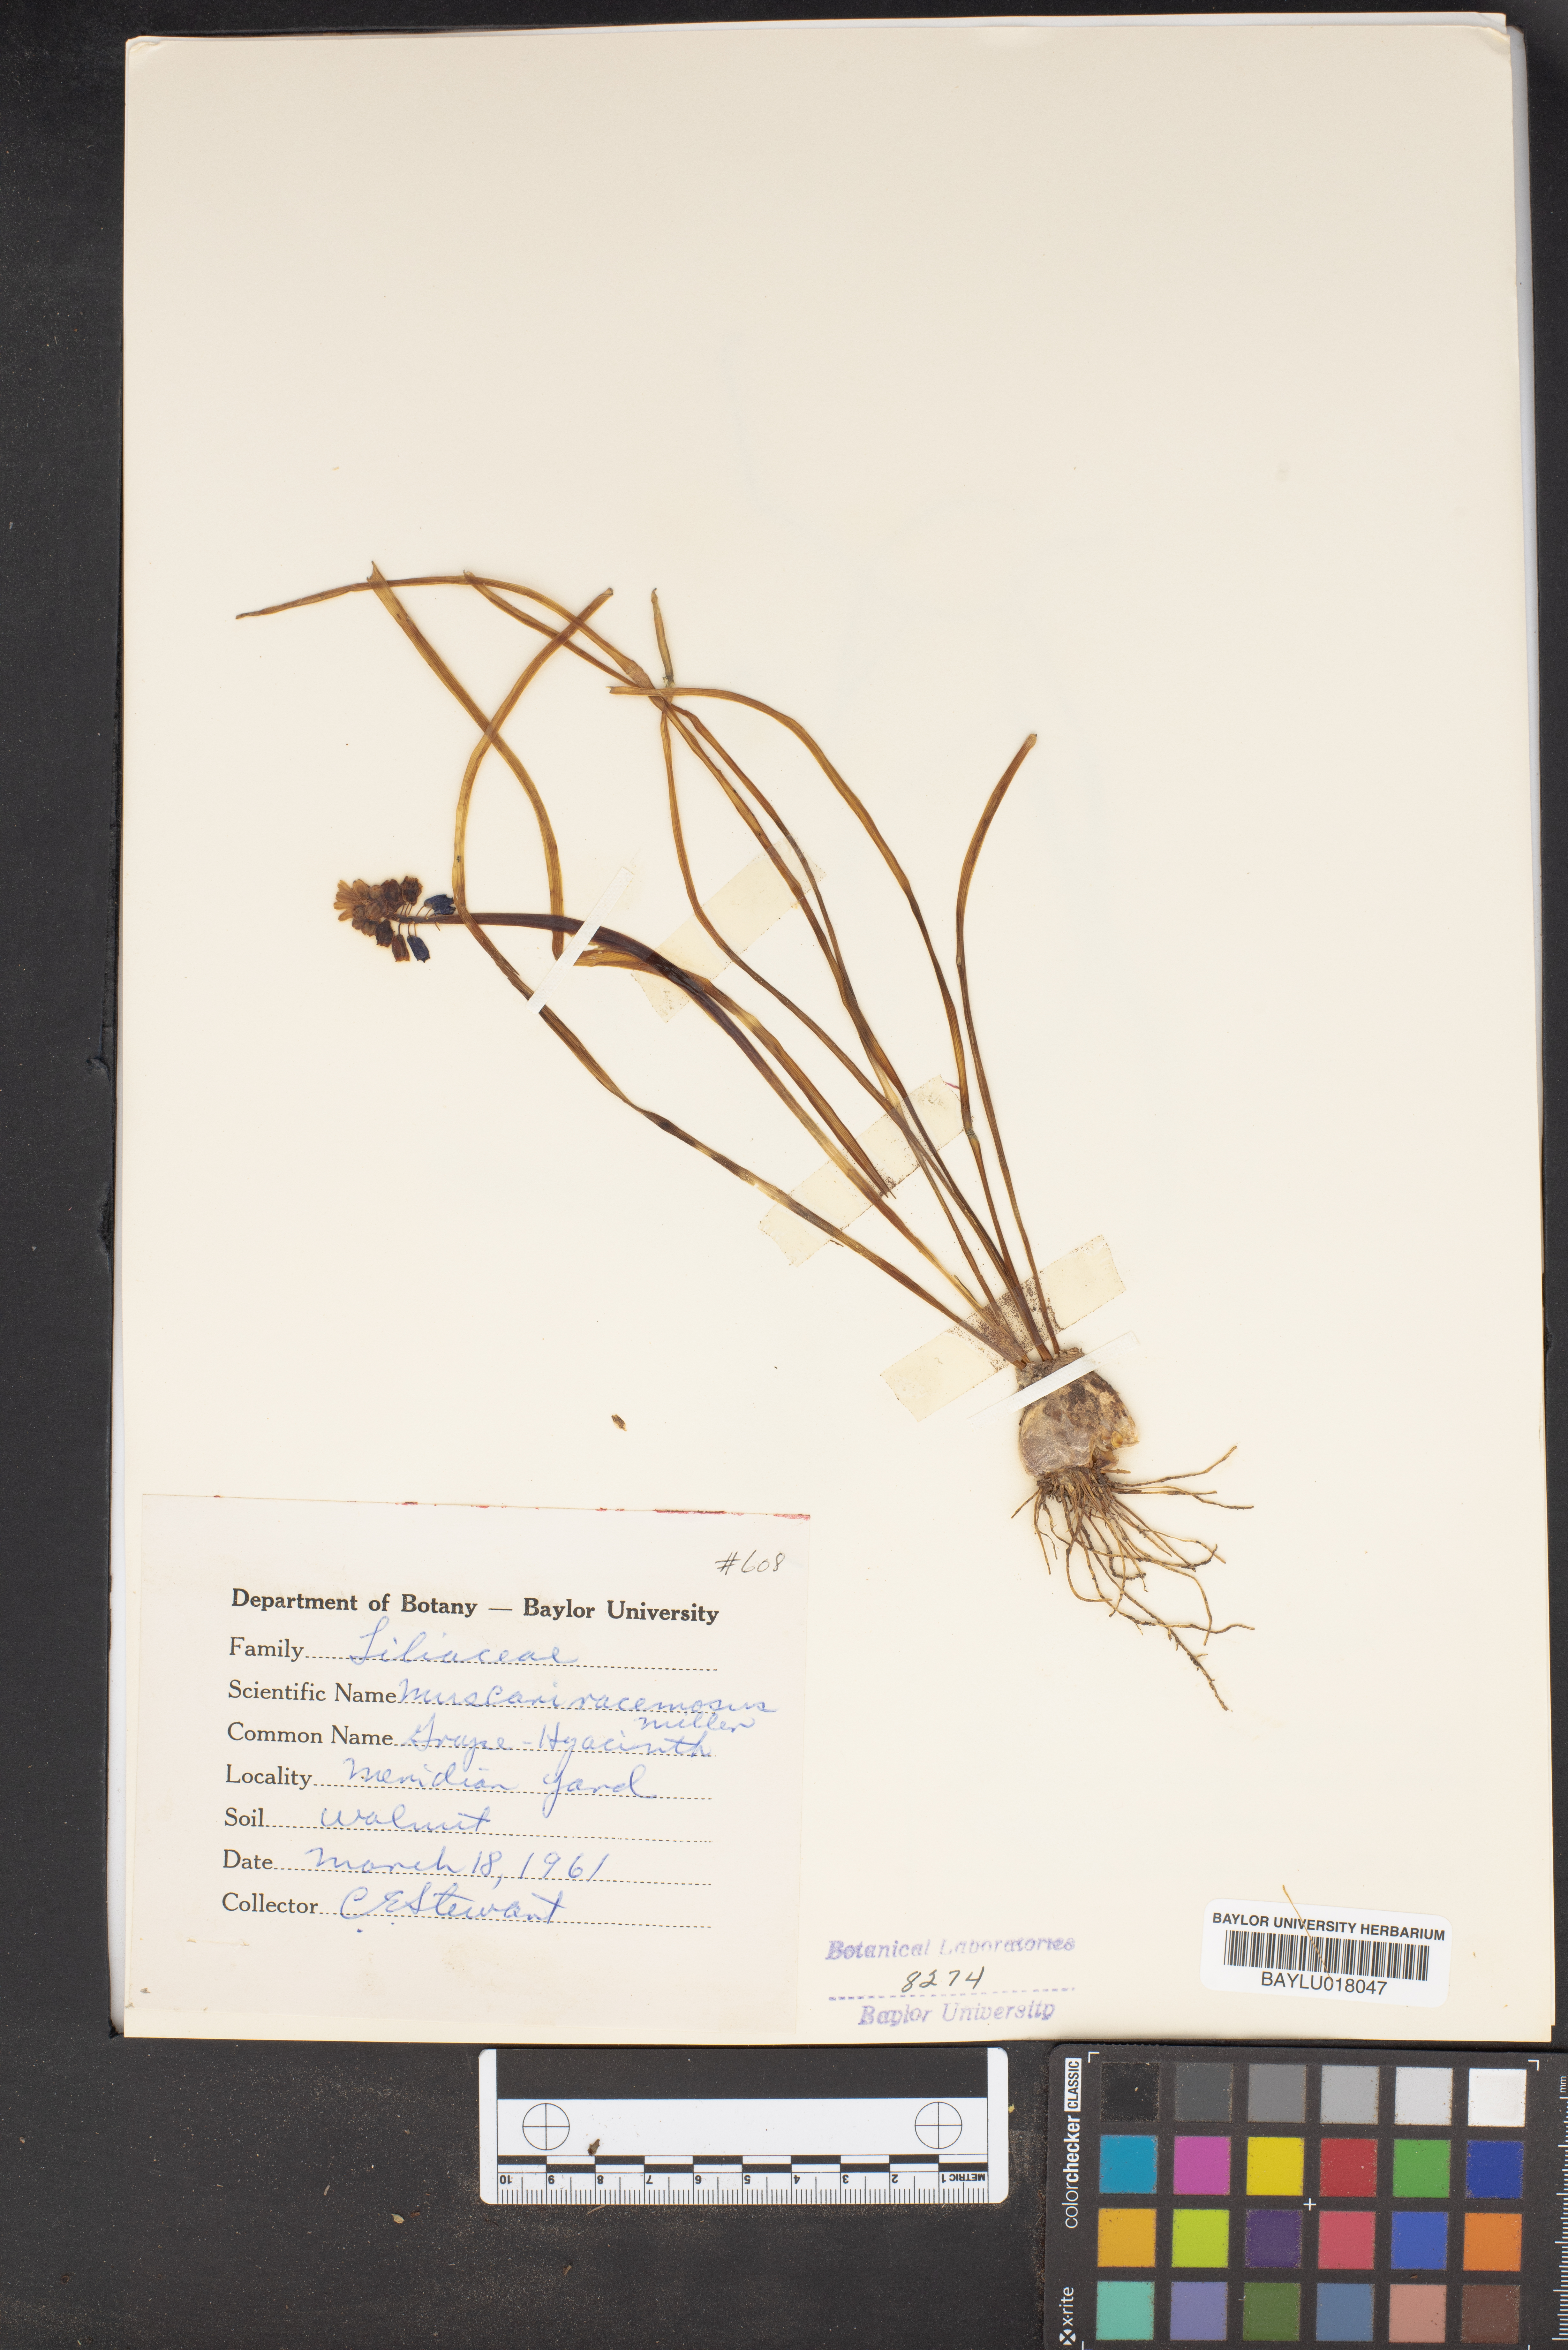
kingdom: Plantae
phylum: Tracheophyta
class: Liliopsida
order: Asparagales
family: Asparagaceae
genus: Muscarimia
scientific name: Muscarimia muscari
